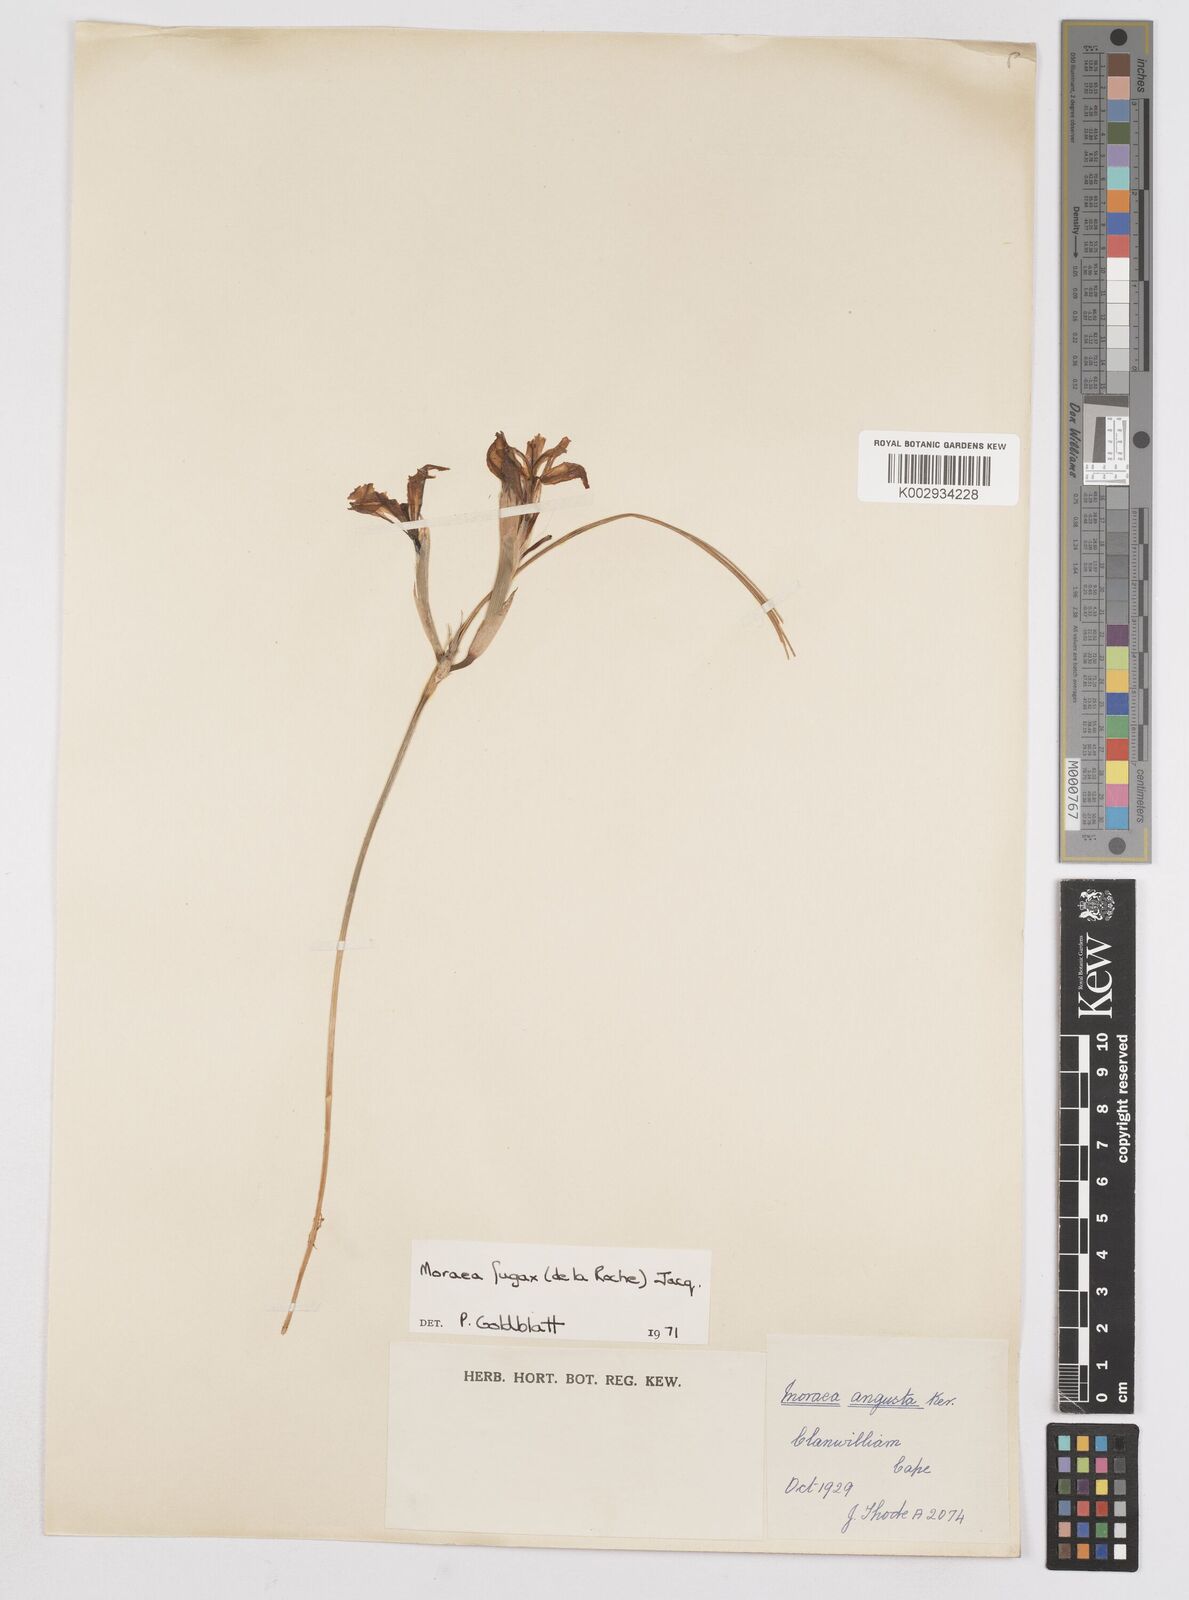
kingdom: Plantae
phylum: Tracheophyta
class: Liliopsida
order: Asparagales
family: Iridaceae
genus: Moraea
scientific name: Moraea fugax
